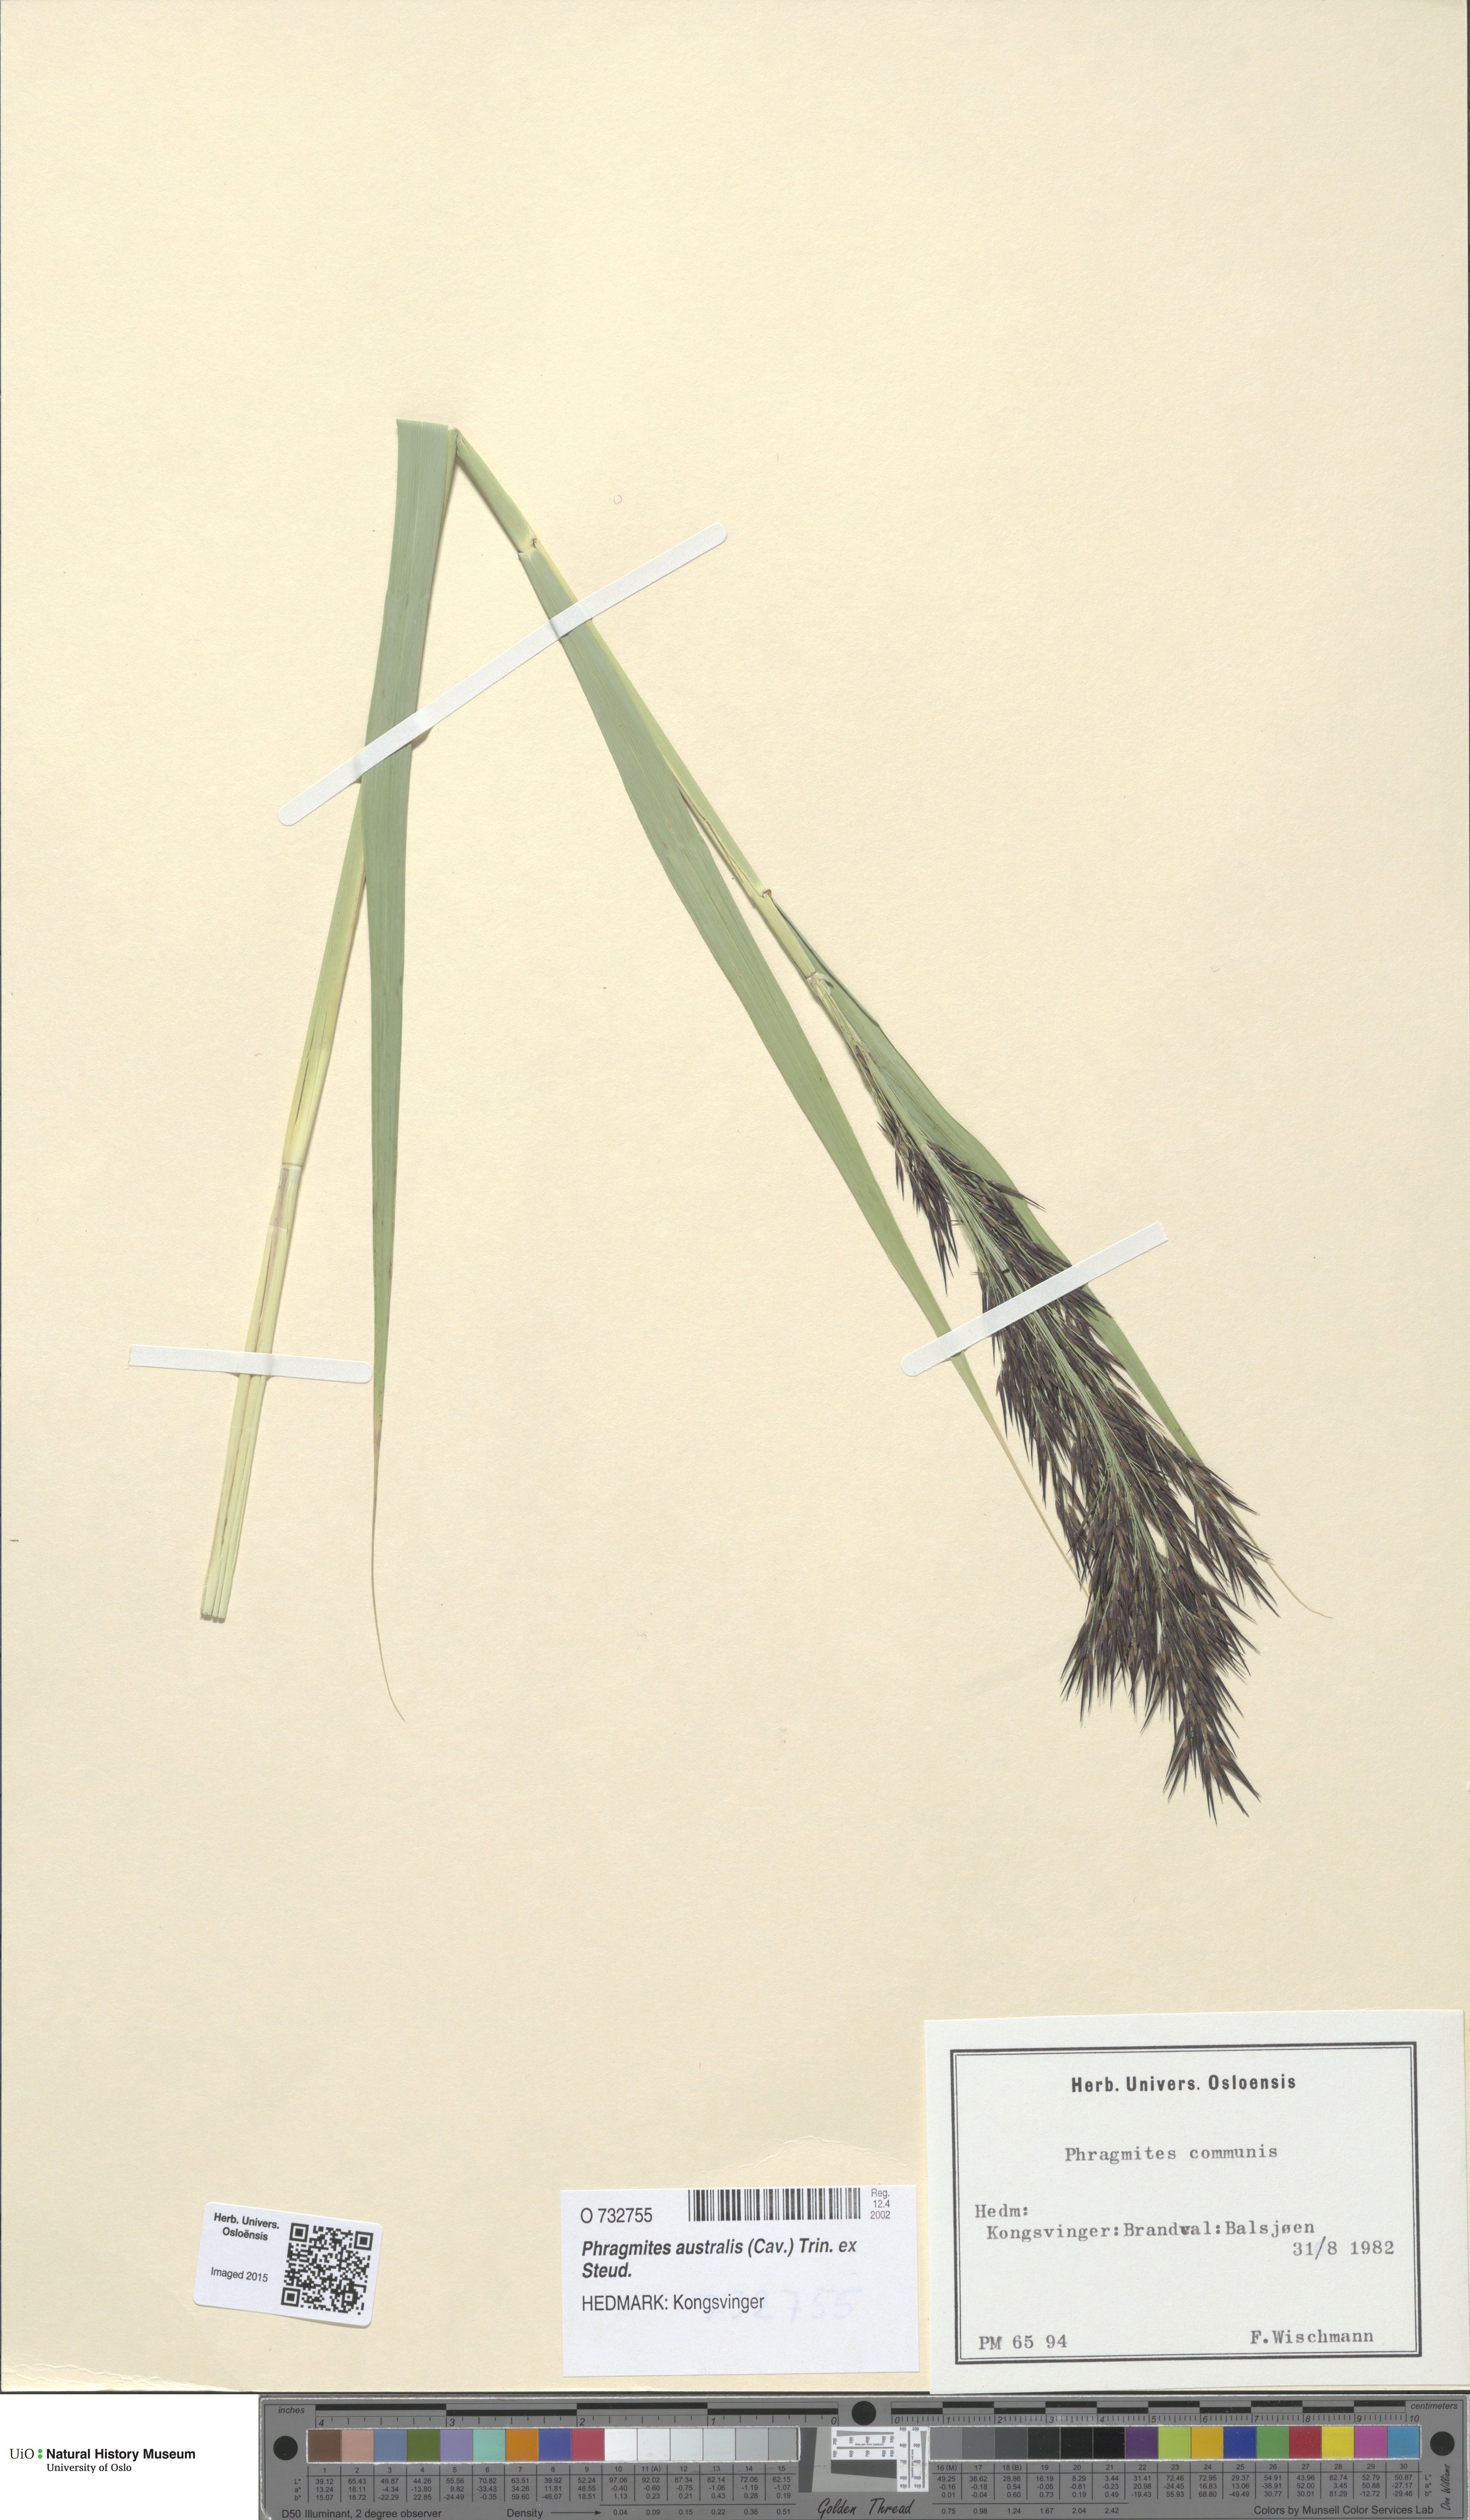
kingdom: Plantae
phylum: Tracheophyta
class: Liliopsida
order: Poales
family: Poaceae
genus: Phragmites
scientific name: Phragmites australis
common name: Common reed
